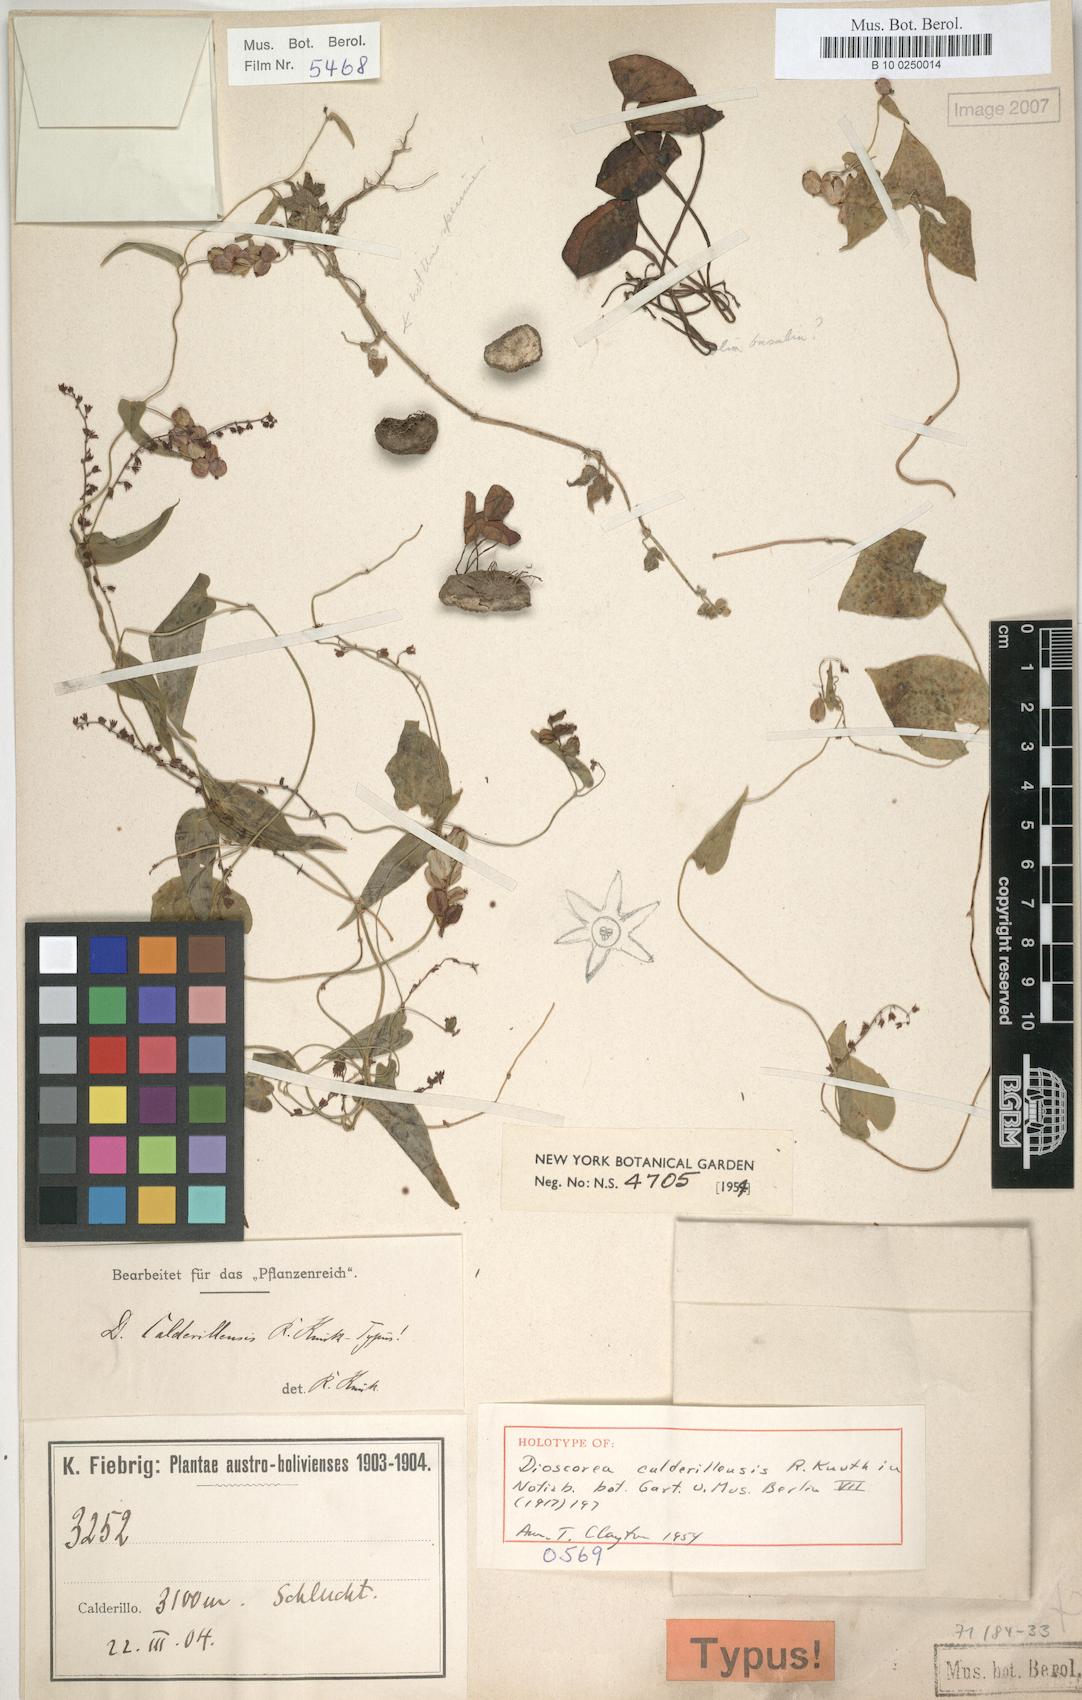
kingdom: Plantae
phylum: Tracheophyta
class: Liliopsida
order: Dioscoreales
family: Dioscoreaceae
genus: Dioscorea
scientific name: Dioscorea calderillensis
